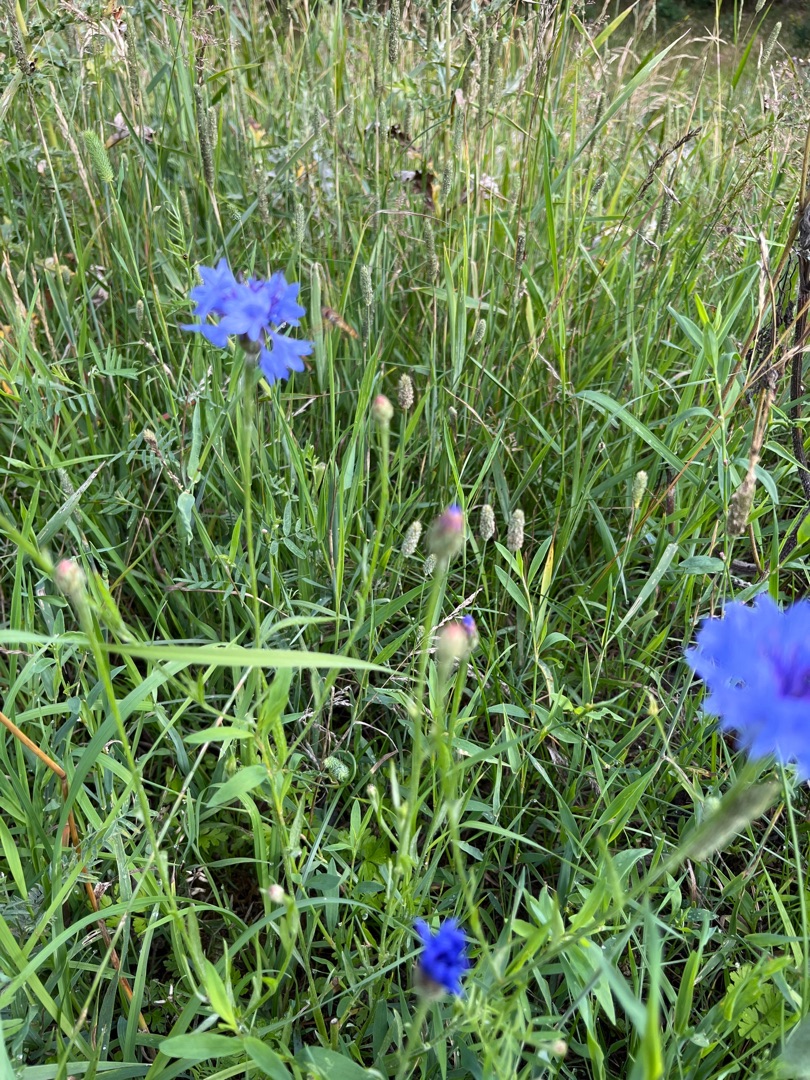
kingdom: Plantae
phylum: Tracheophyta
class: Magnoliopsida
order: Asterales
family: Asteraceae
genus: Centaurea
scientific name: Centaurea cyanus
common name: Kornblomst
